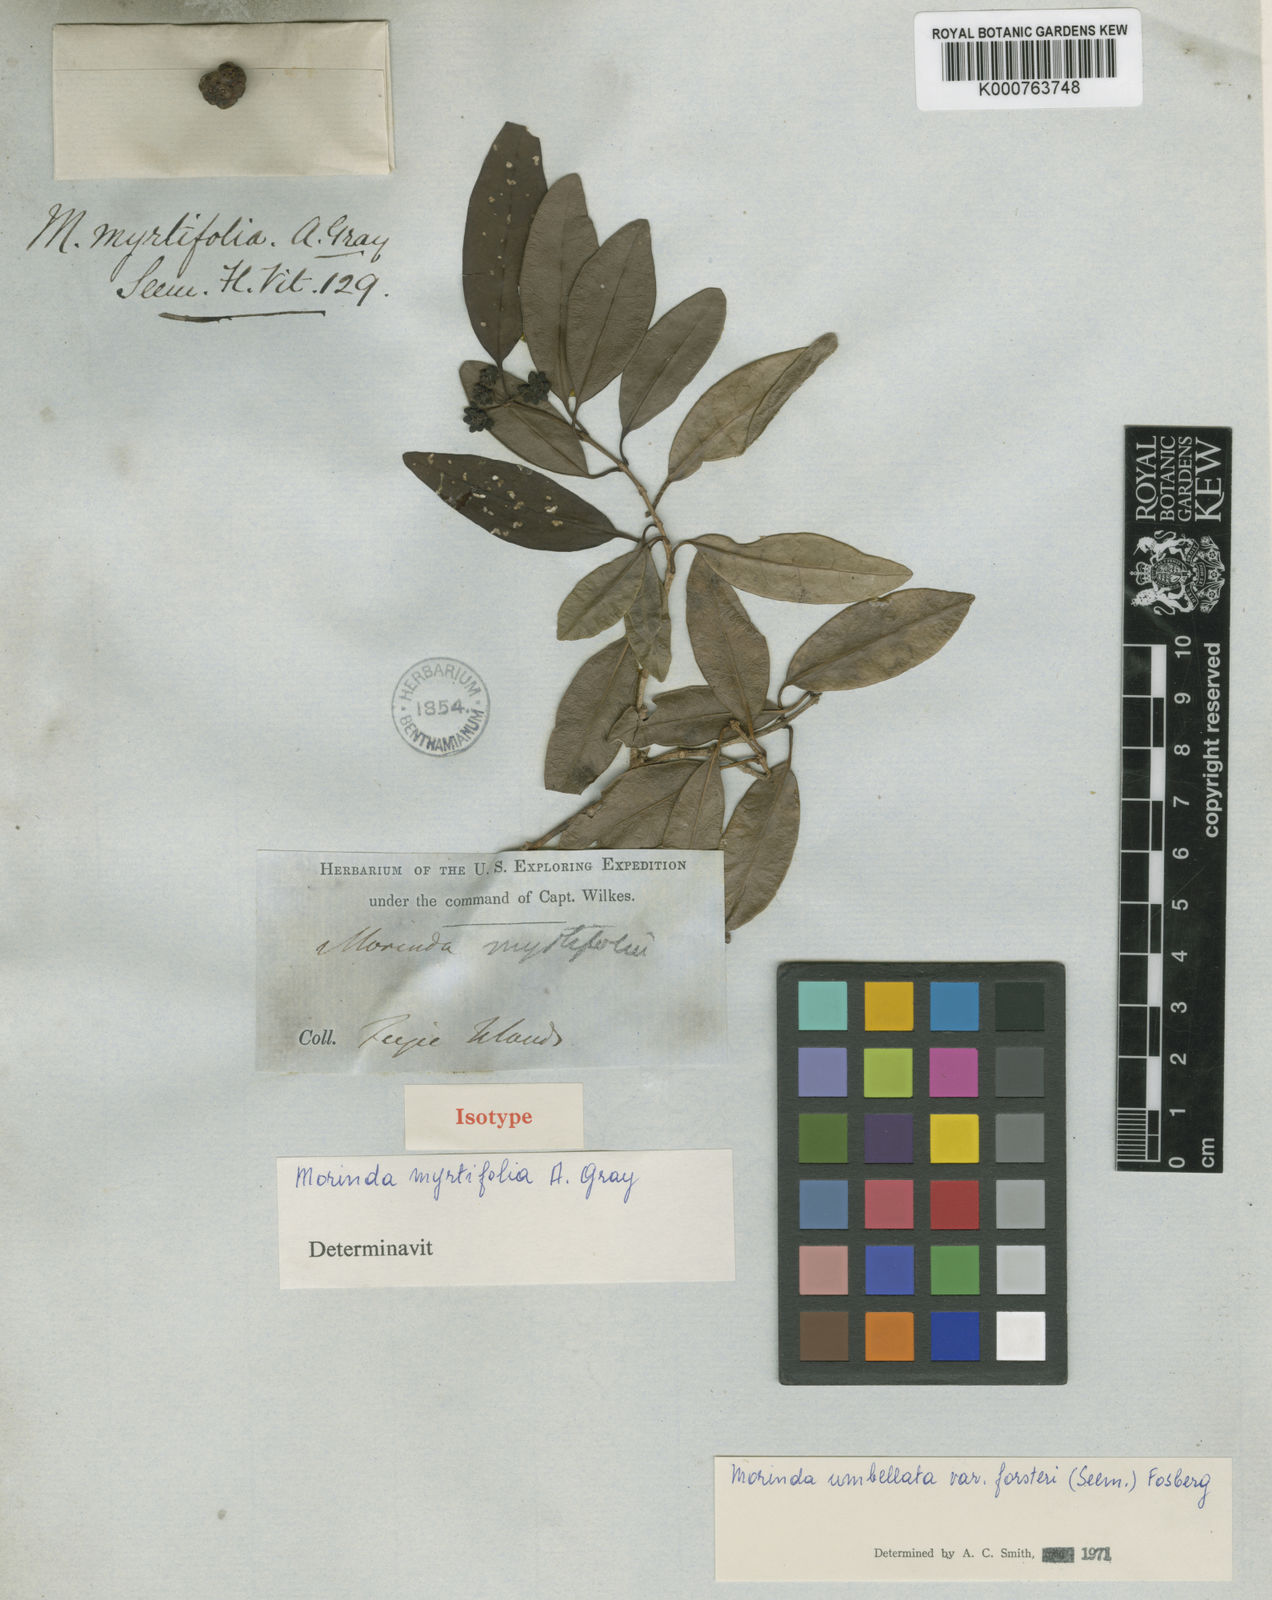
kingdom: Plantae
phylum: Tracheophyta
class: Magnoliopsida
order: Gentianales
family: Rubiaceae
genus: Gynochthodes
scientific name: Gynochthodes umbellata
